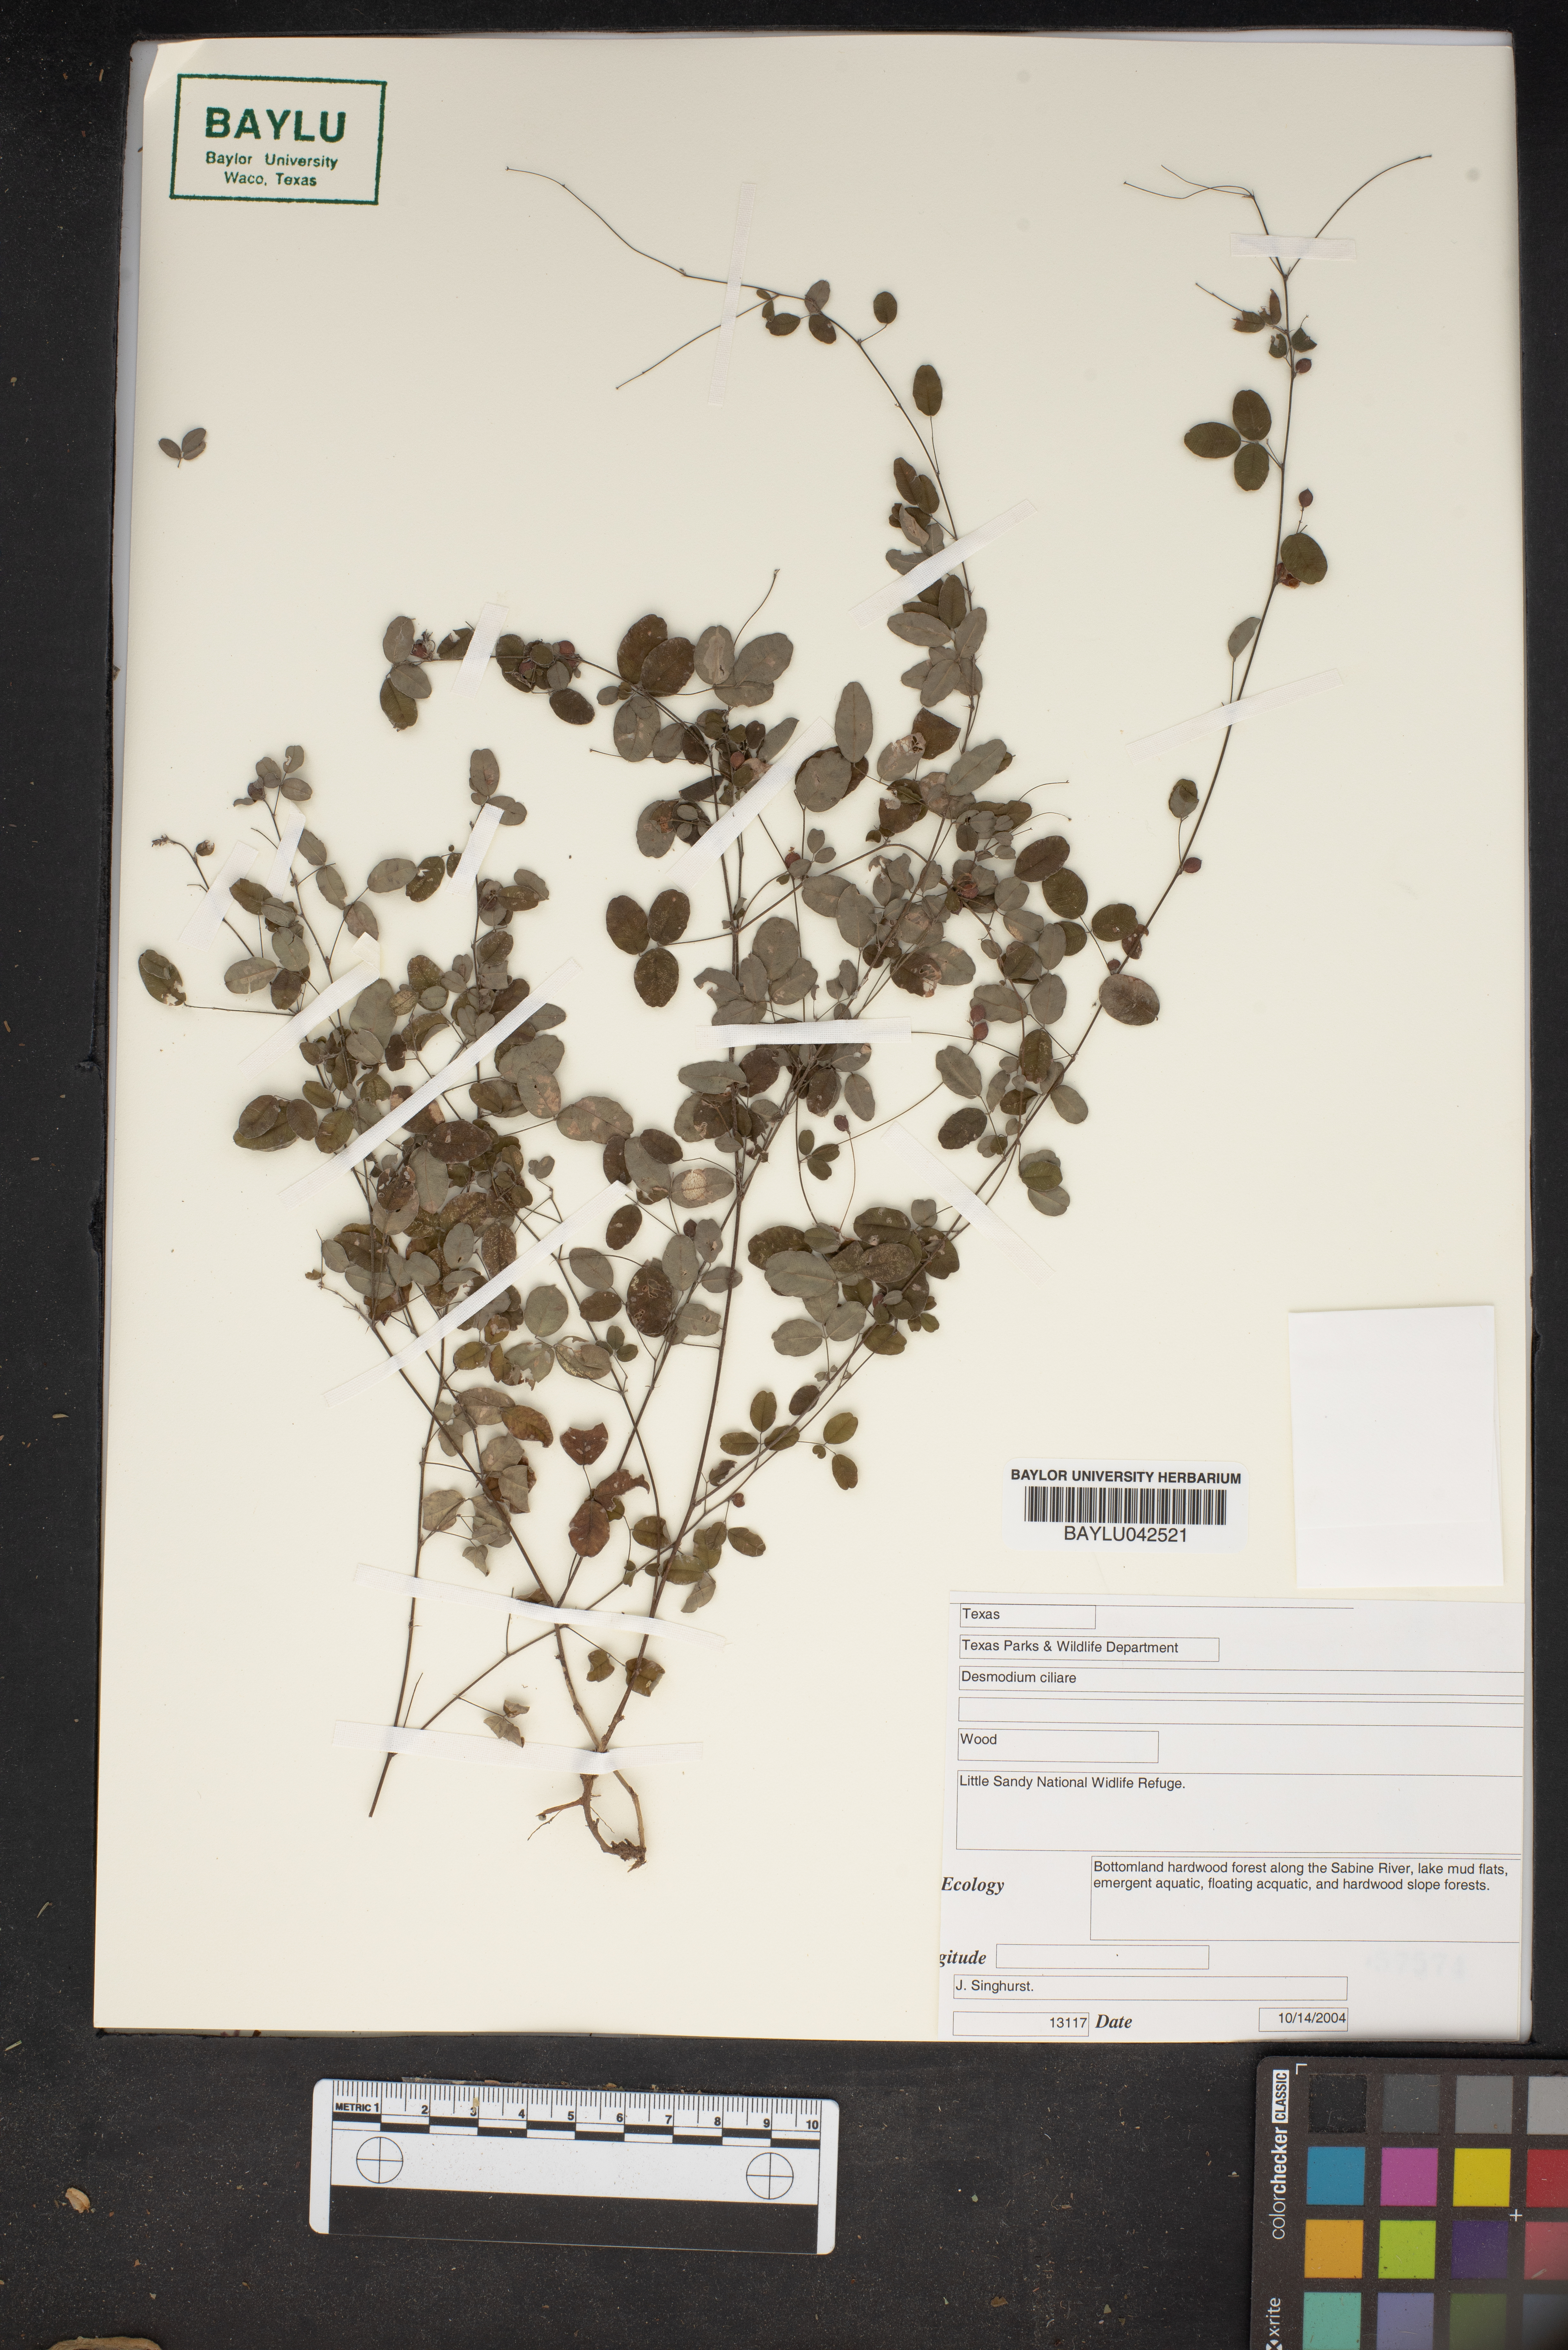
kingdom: Plantae
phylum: Tracheophyta
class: Magnoliopsida
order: Fabales
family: Fabaceae
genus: Desmodium
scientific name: Desmodium ciliare
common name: Hairy small-leaf ticktrefoil
